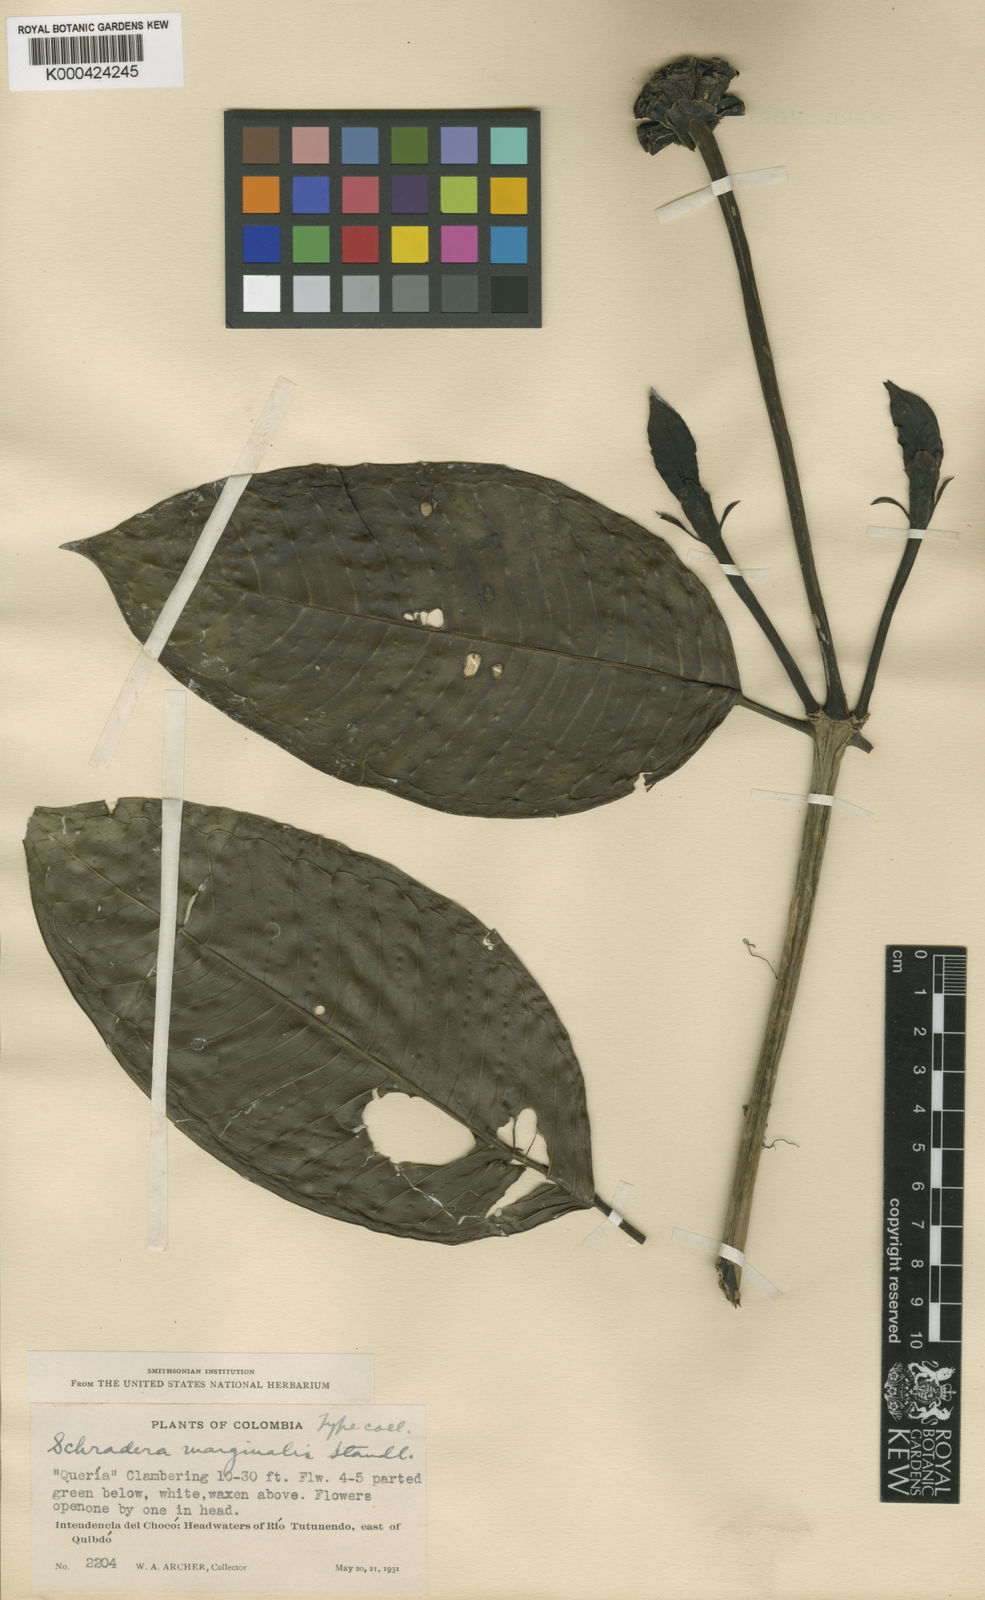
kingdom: Plantae
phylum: Tracheophyta
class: Magnoliopsida
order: Gentianales
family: Rubiaceae
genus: Schradera
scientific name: Schradera marginalis
